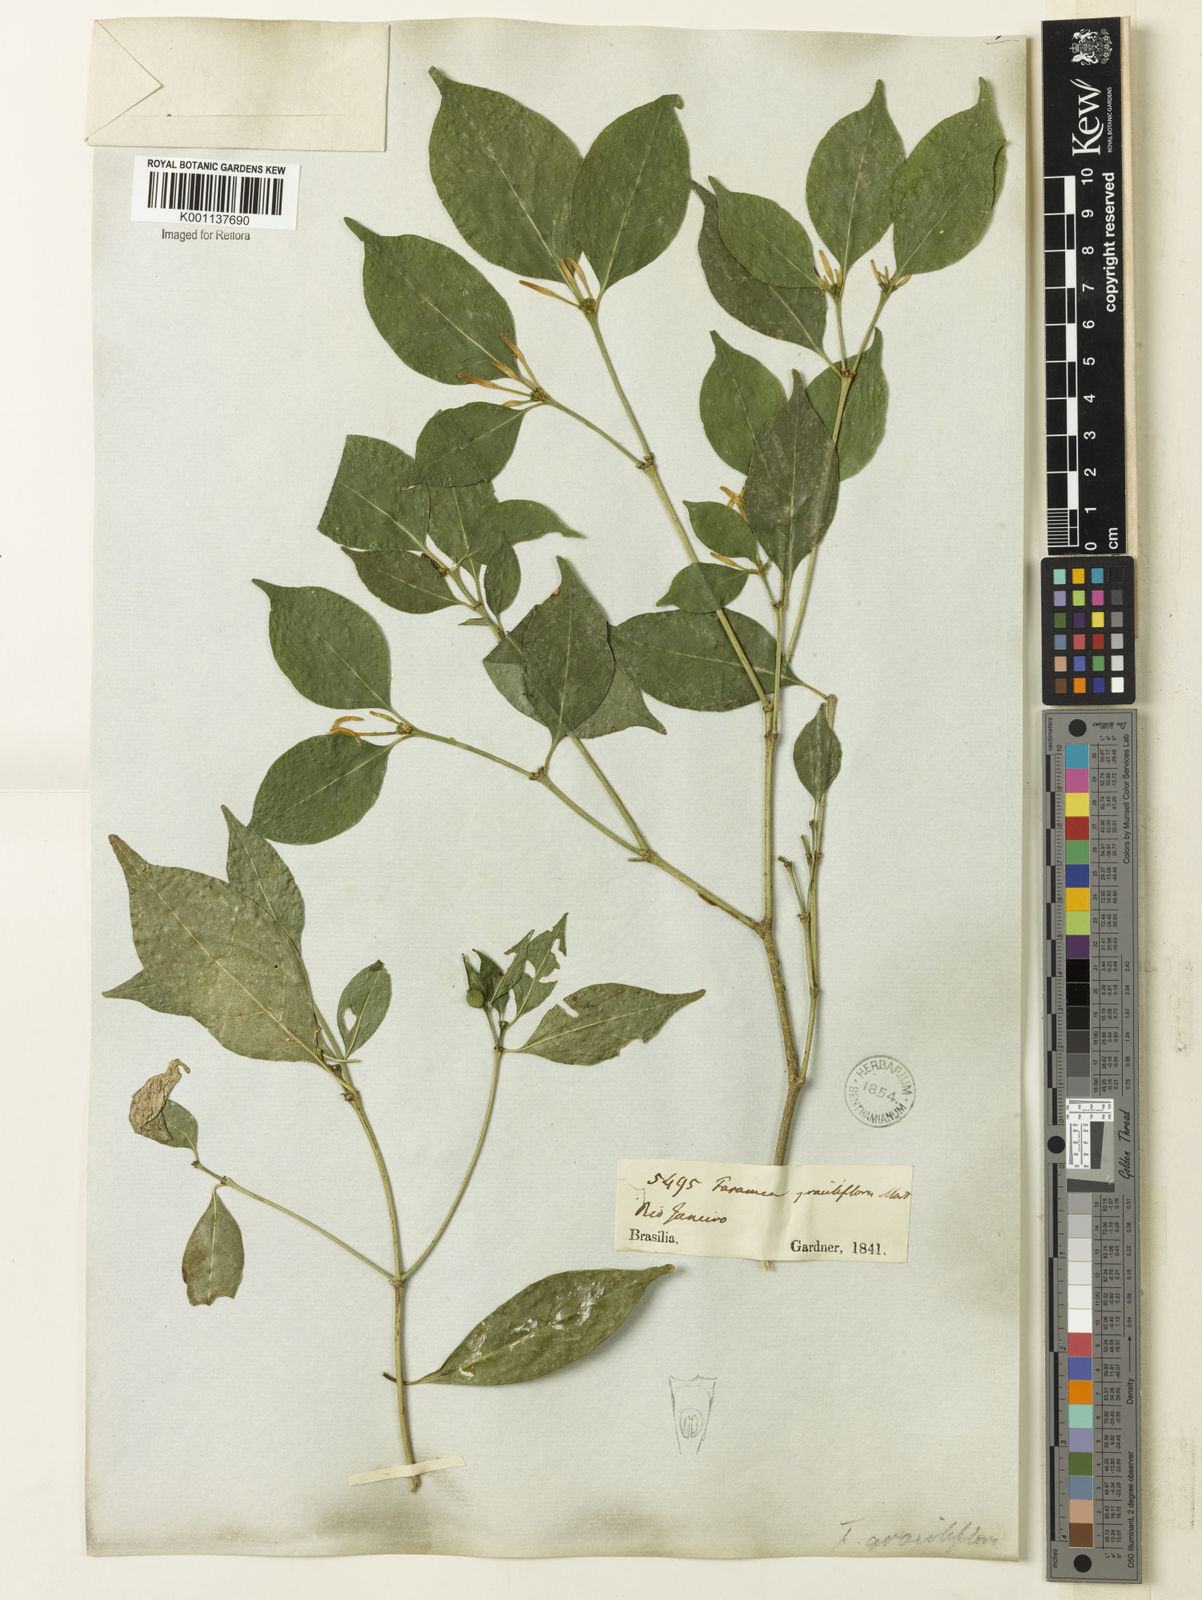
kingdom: Plantae
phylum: Tracheophyta
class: Magnoliopsida
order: Gentianales
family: Rubiaceae
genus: Coussarea
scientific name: Coussarea
